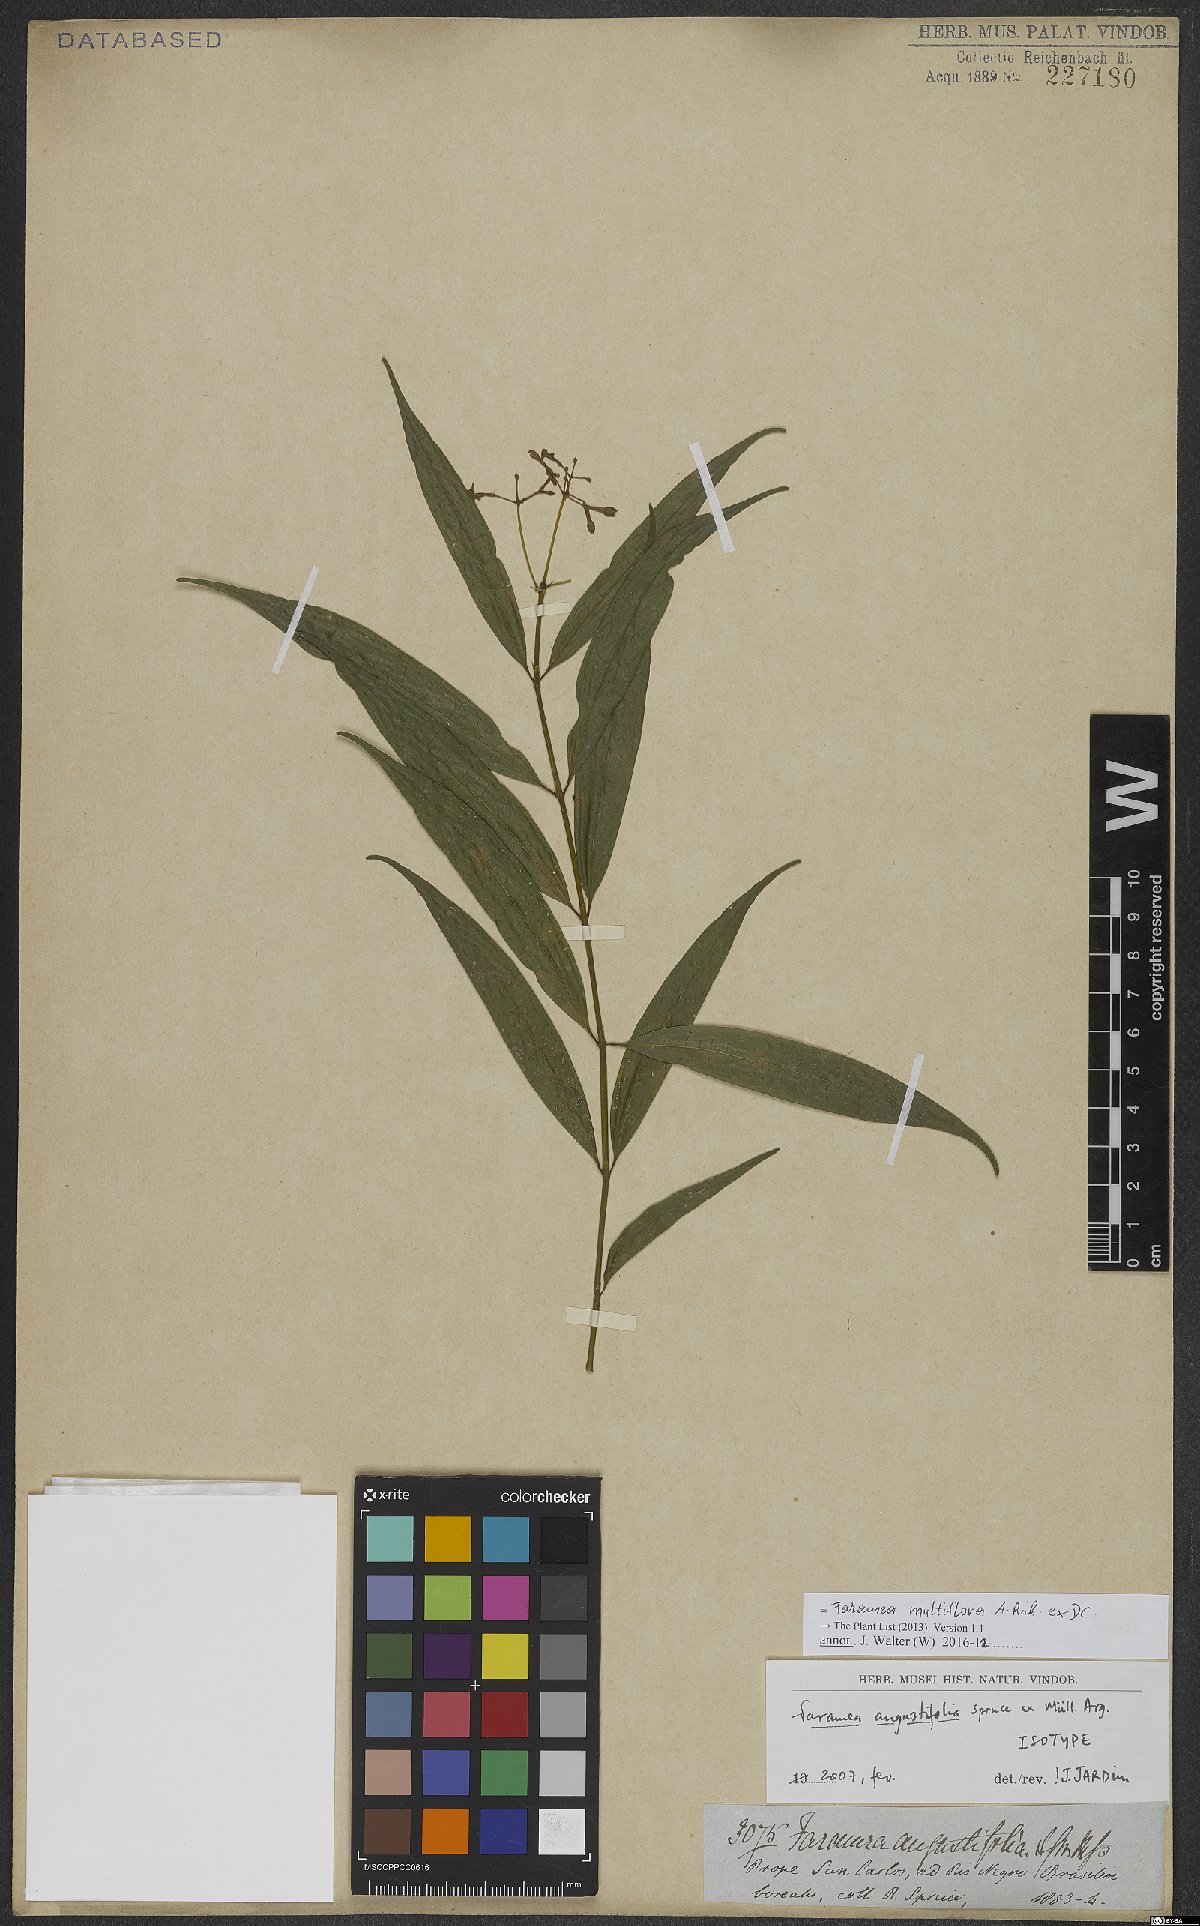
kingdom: Plantae
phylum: Tracheophyta
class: Magnoliopsida
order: Gentianales
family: Rubiaceae
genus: Faramea
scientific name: Faramea multiflora
